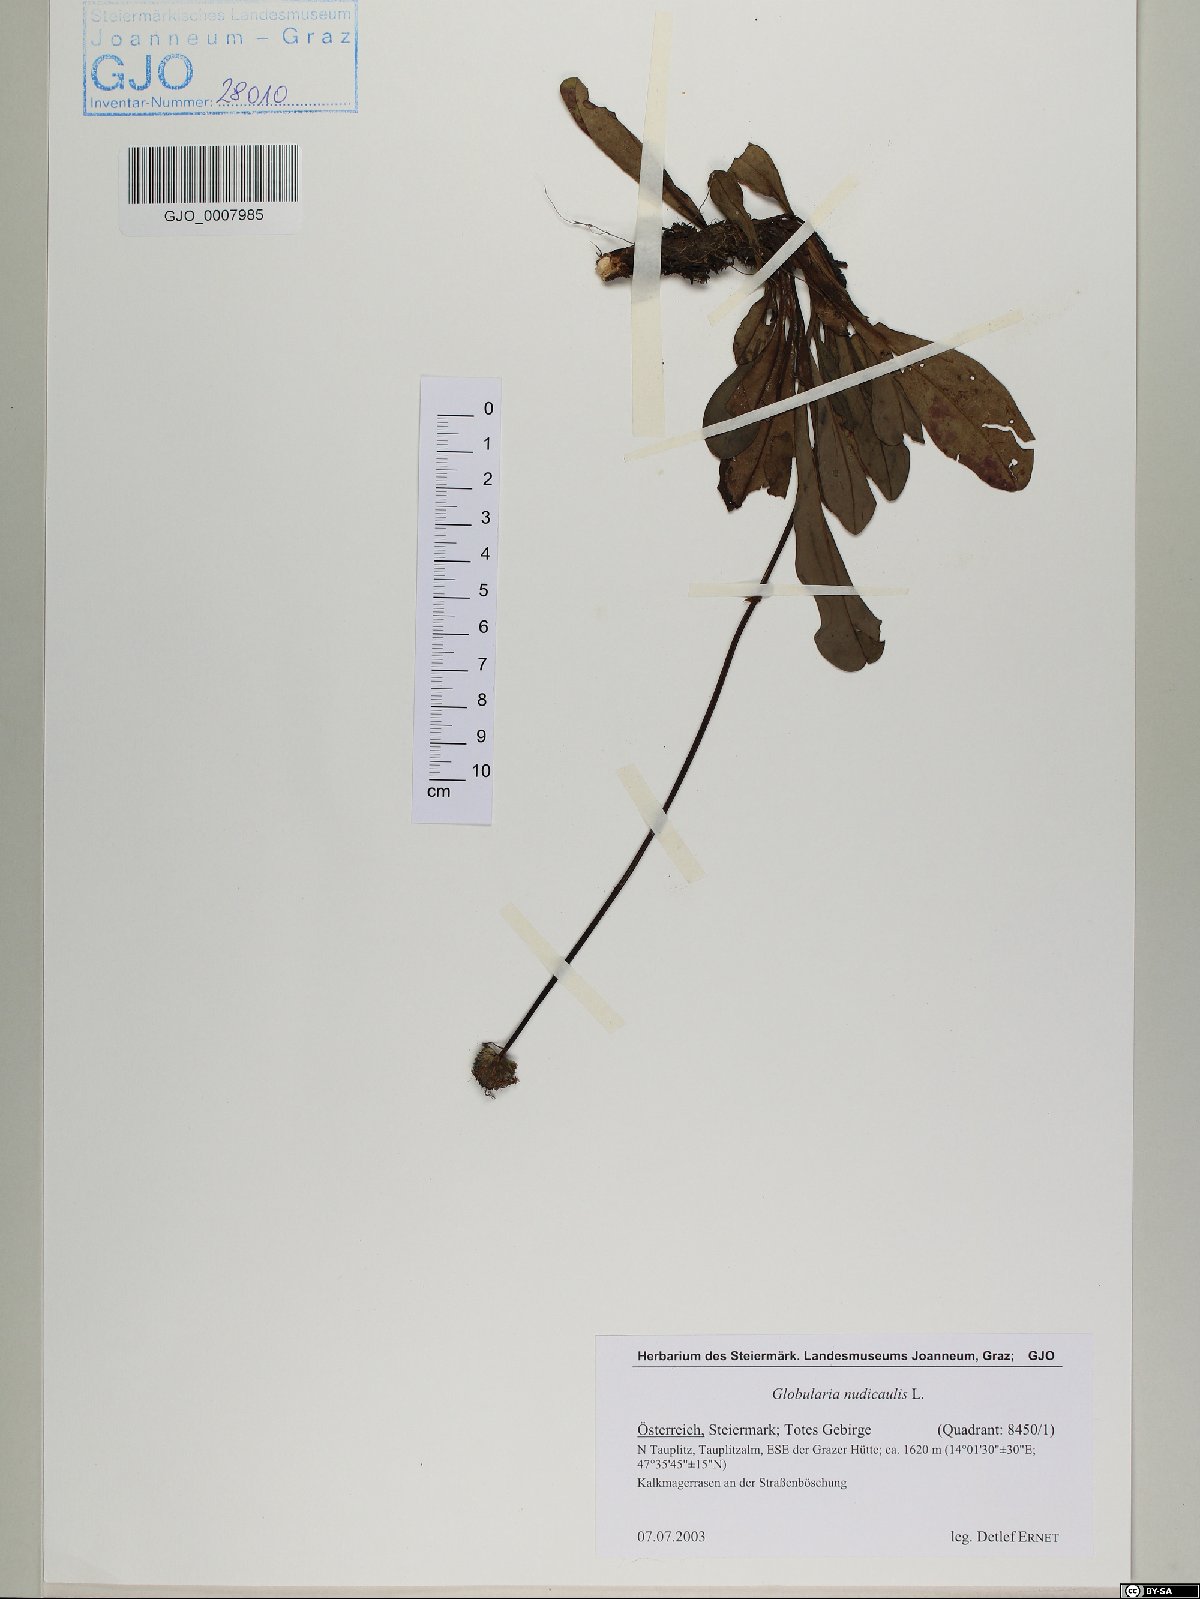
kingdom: Plantae
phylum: Tracheophyta
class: Magnoliopsida
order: Lamiales
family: Plantaginaceae
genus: Globularia
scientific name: Globularia nudicaulis
